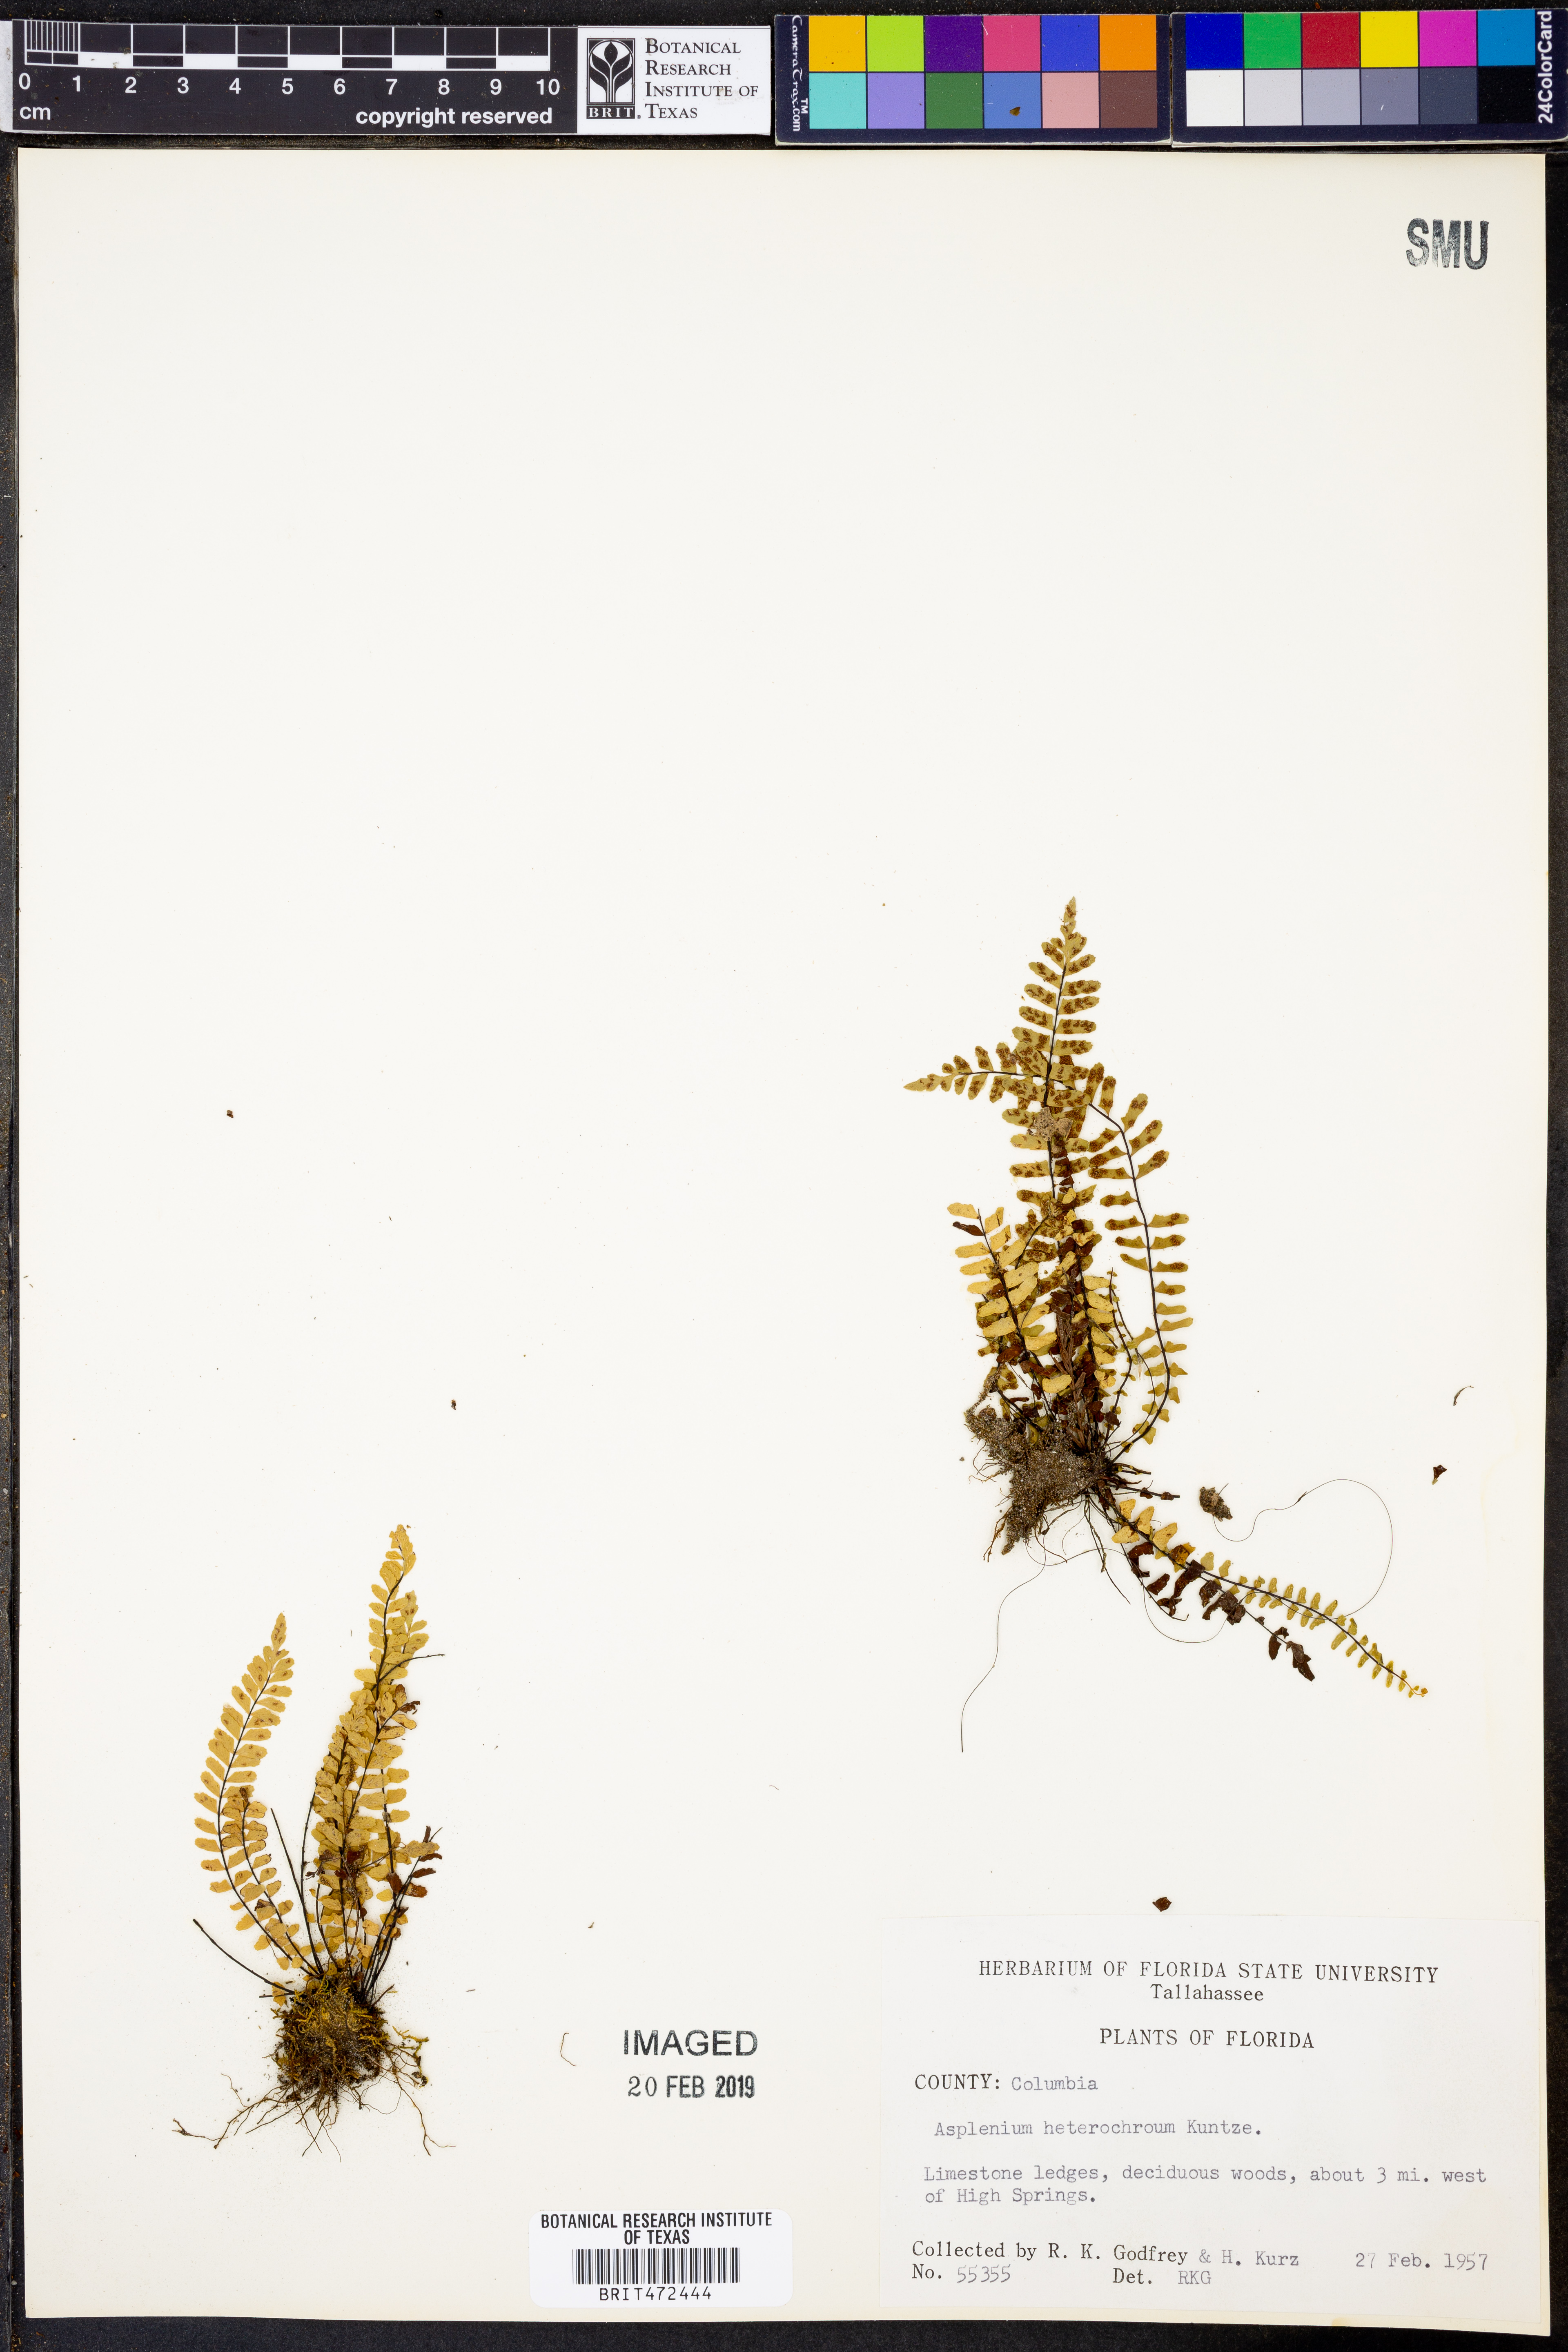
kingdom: Plantae
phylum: Tracheophyta
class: Polypodiopsida
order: Polypodiales
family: Aspleniaceae
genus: Asplenium
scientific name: Asplenium heterochroum
